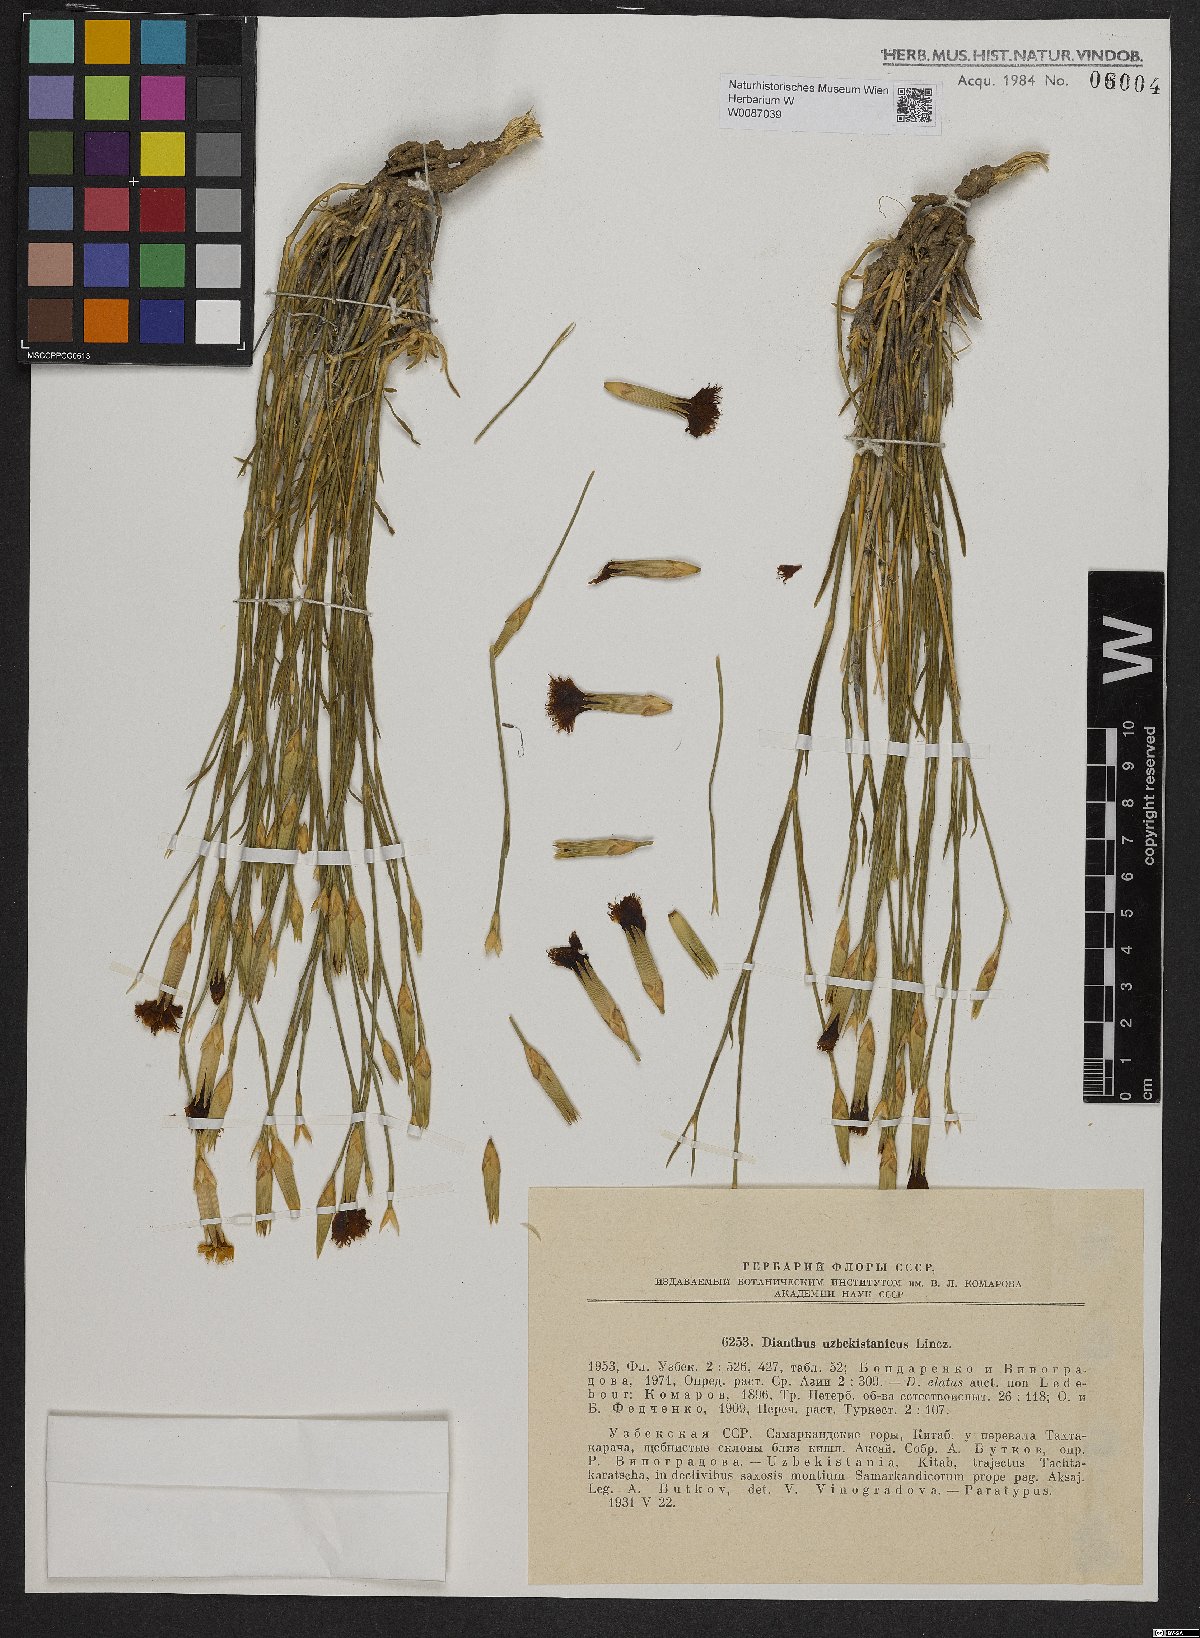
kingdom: Plantae
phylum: Tracheophyta
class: Magnoliopsida
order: Caryophyllales
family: Caryophyllaceae
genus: Dianthus
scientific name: Dianthus uzbekistanicus
